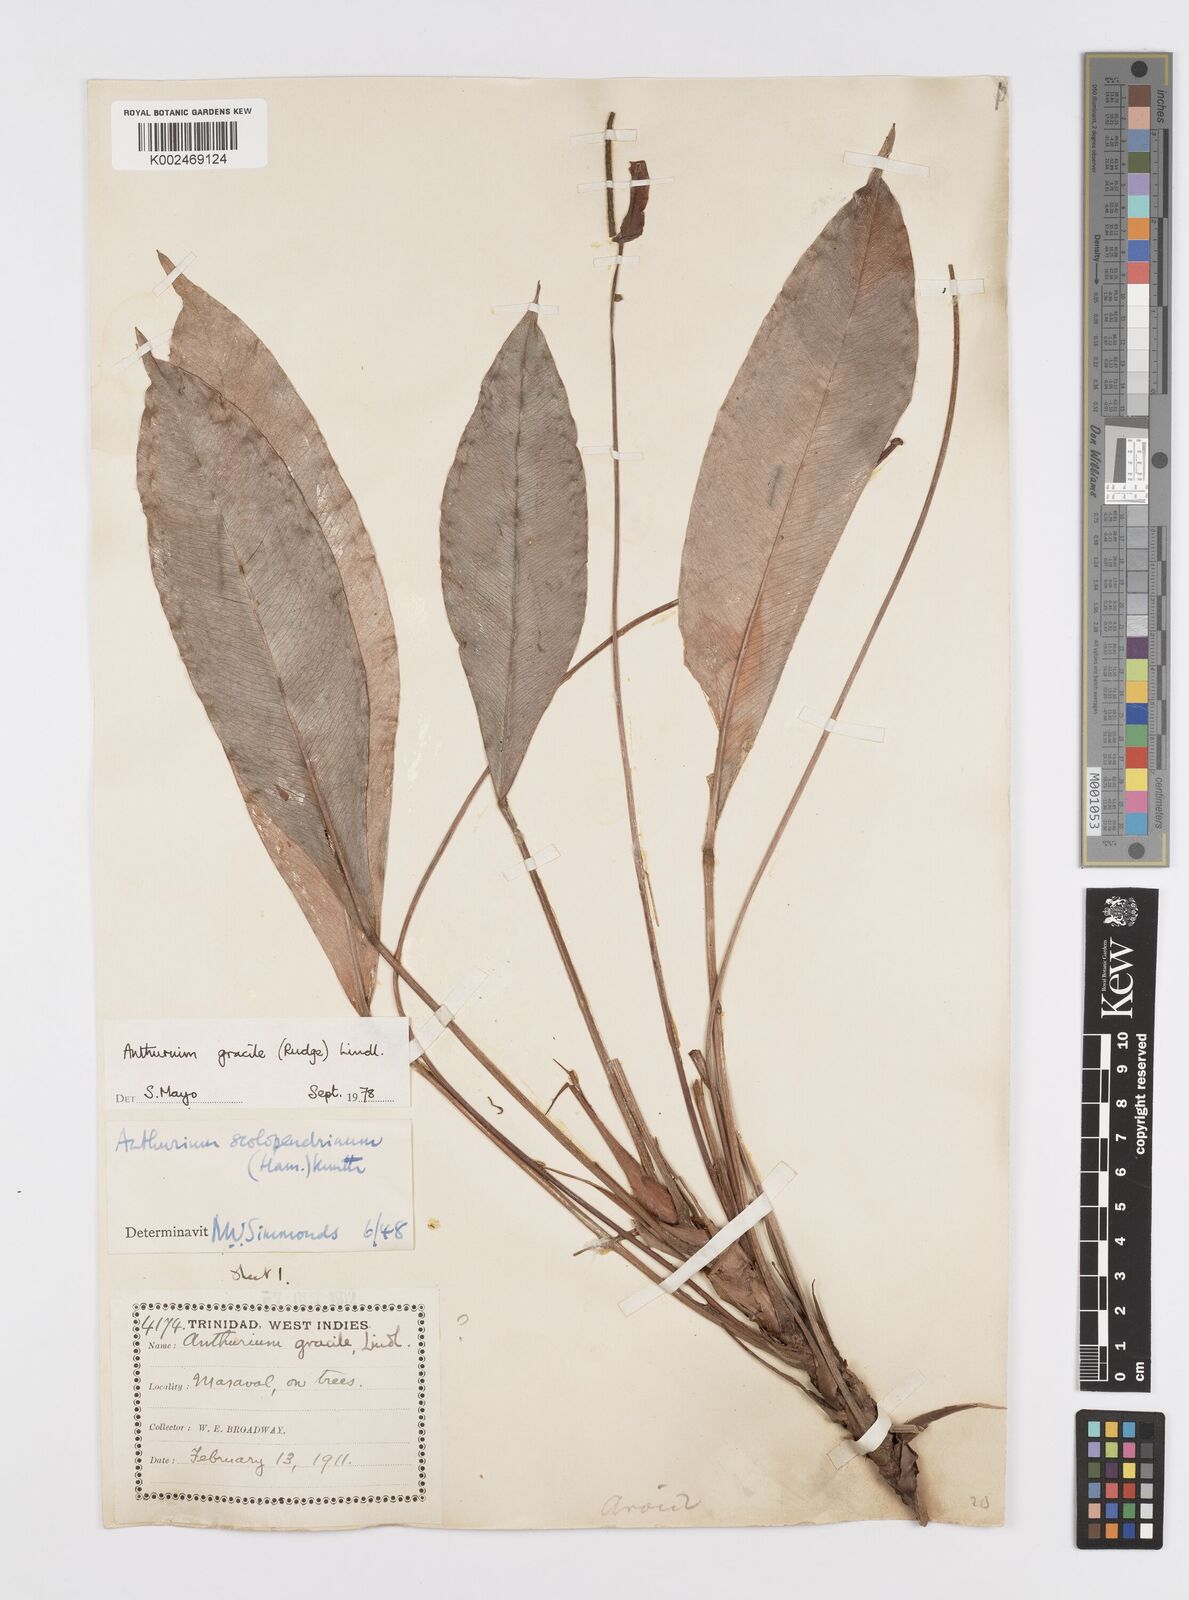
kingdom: Plantae
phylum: Tracheophyta
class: Liliopsida
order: Alismatales
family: Araceae
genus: Anthurium
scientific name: Anthurium gracile
